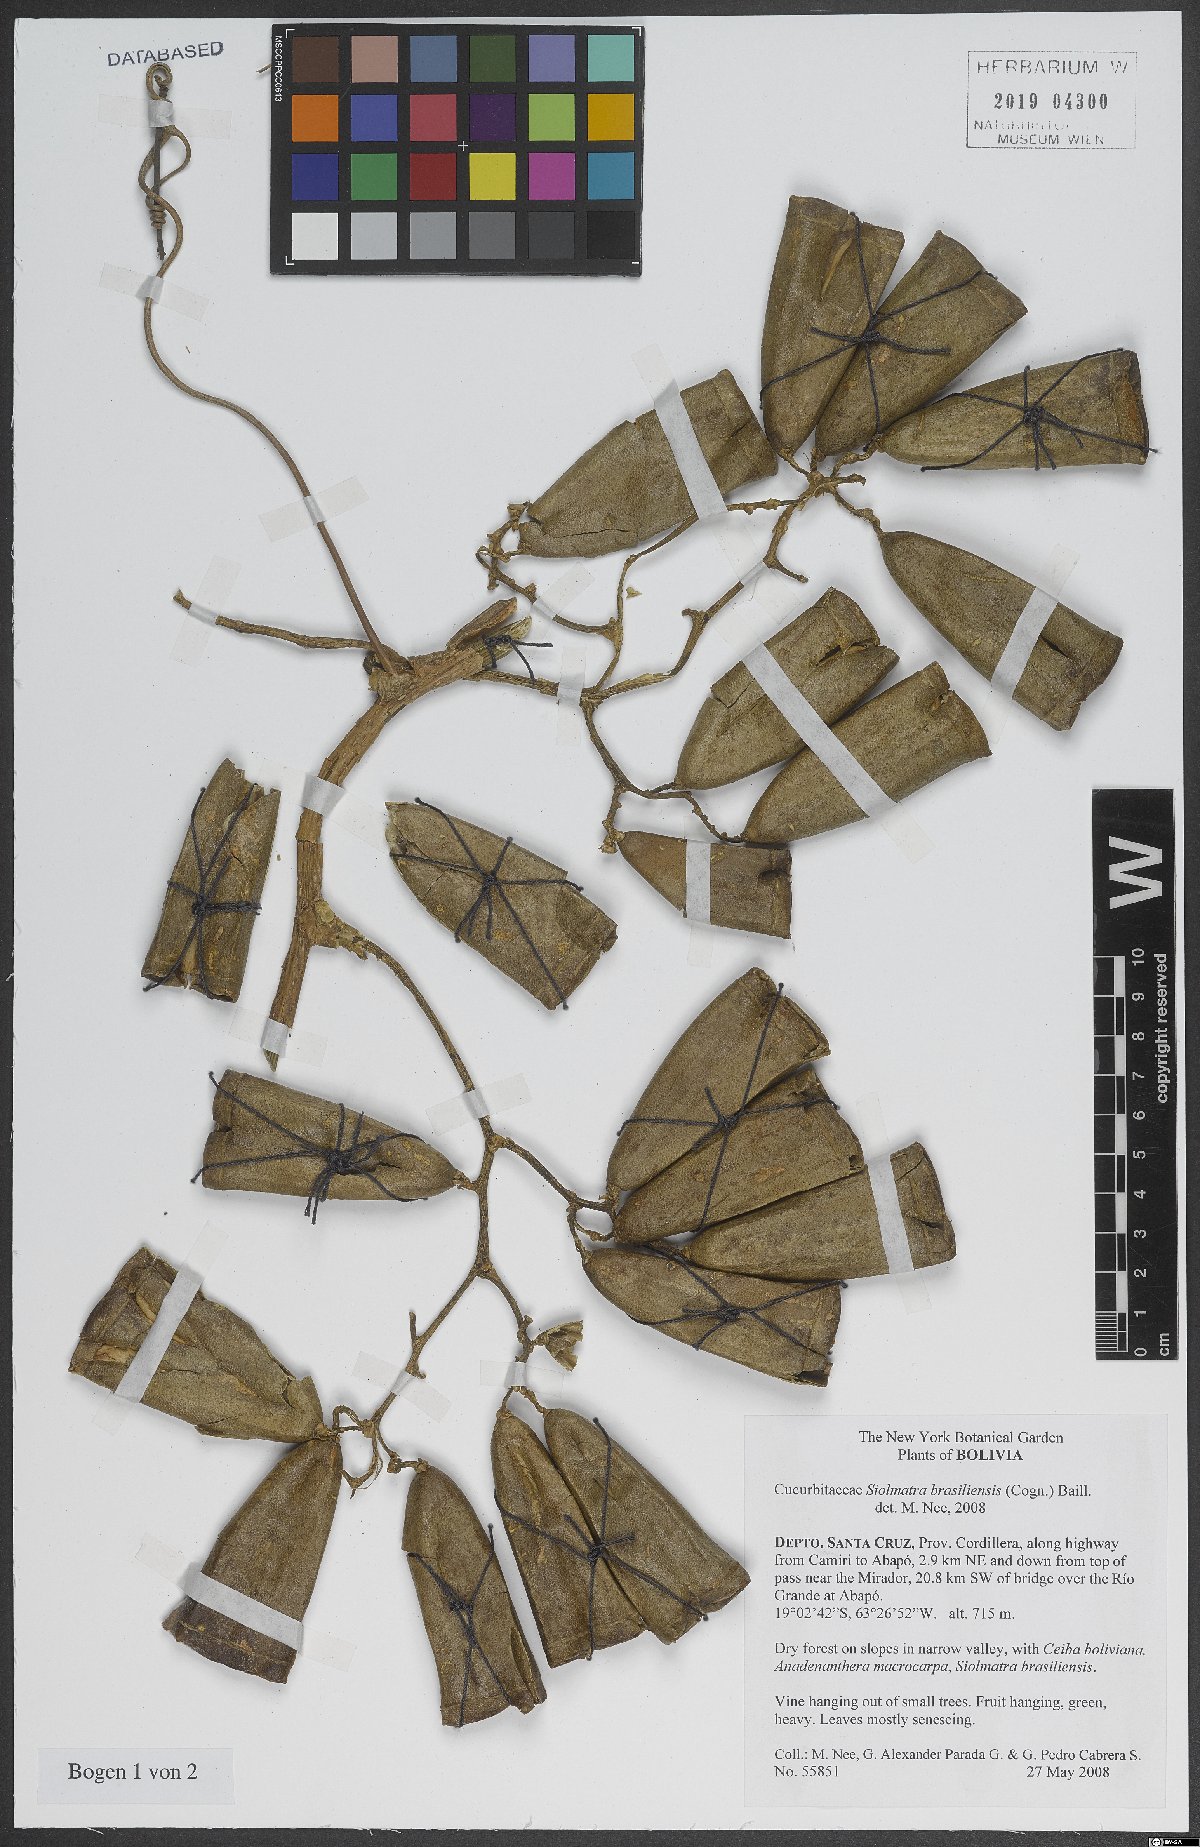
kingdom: Plantae
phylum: Tracheophyta
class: Magnoliopsida
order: Cucurbitales
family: Cucurbitaceae
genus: Siolmatra
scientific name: Siolmatra brasiliensis
